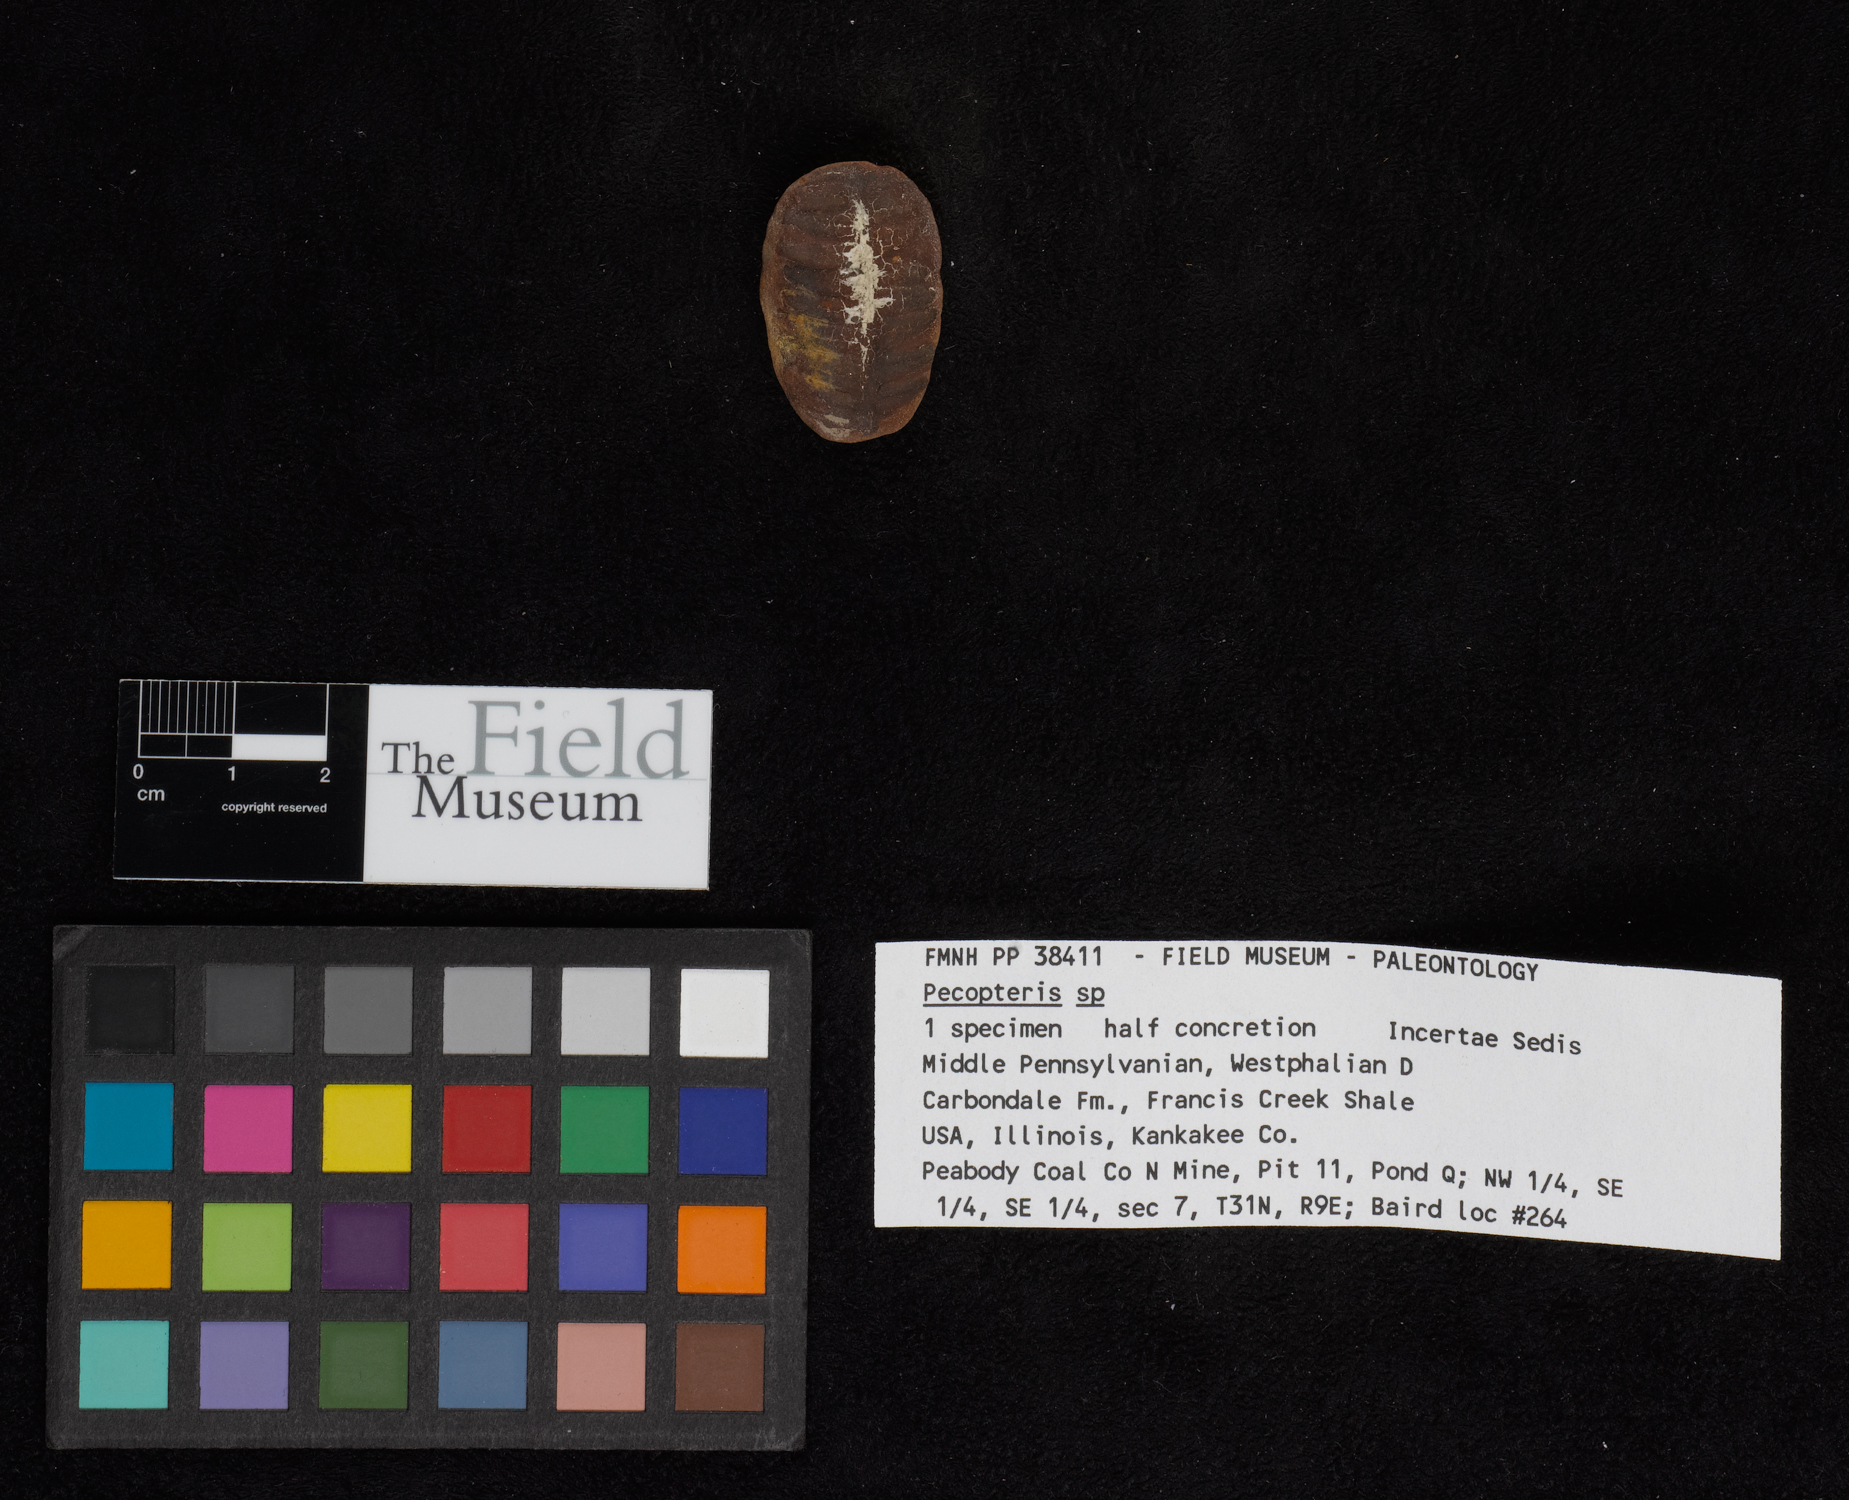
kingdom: Plantae
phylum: Tracheophyta
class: Polypodiopsida
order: Marattiales
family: Asterothecaceae
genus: Pecopteris
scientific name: Pecopteris
